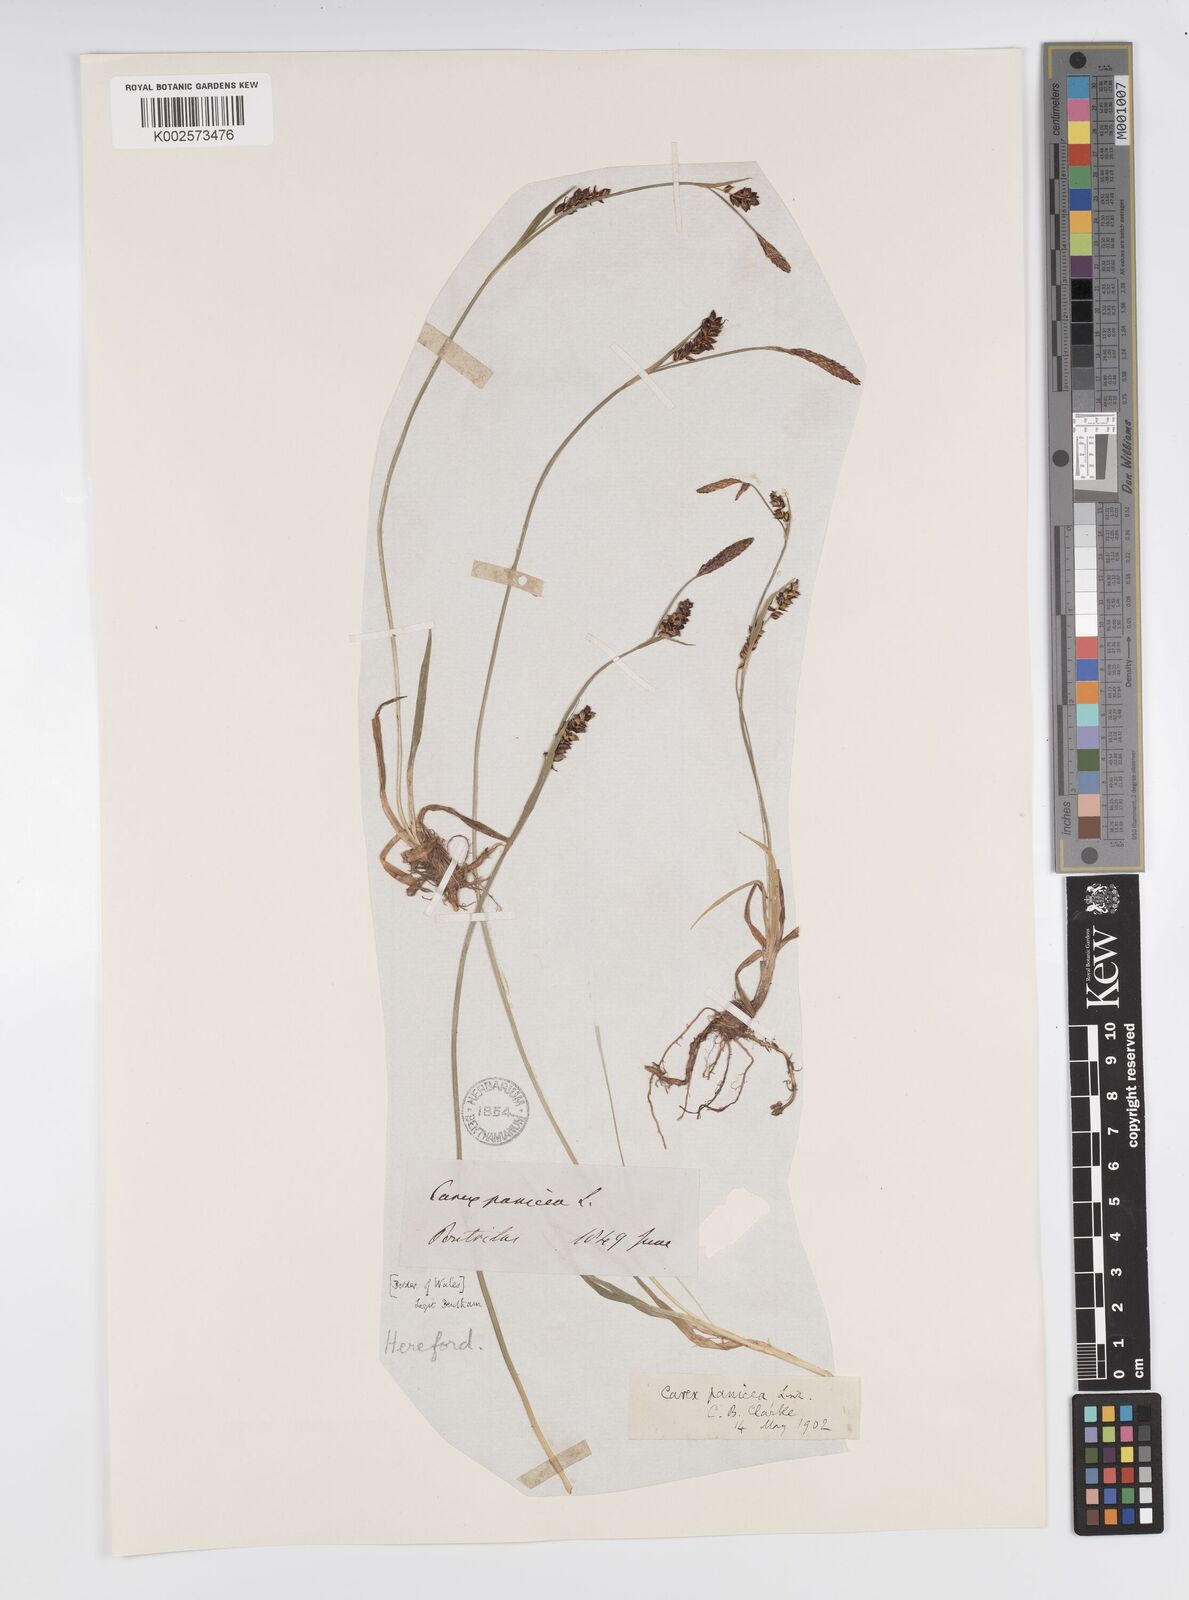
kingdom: Plantae
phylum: Tracheophyta
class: Liliopsida
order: Poales
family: Cyperaceae
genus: Carex
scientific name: Carex panicea
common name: Carnation sedge
